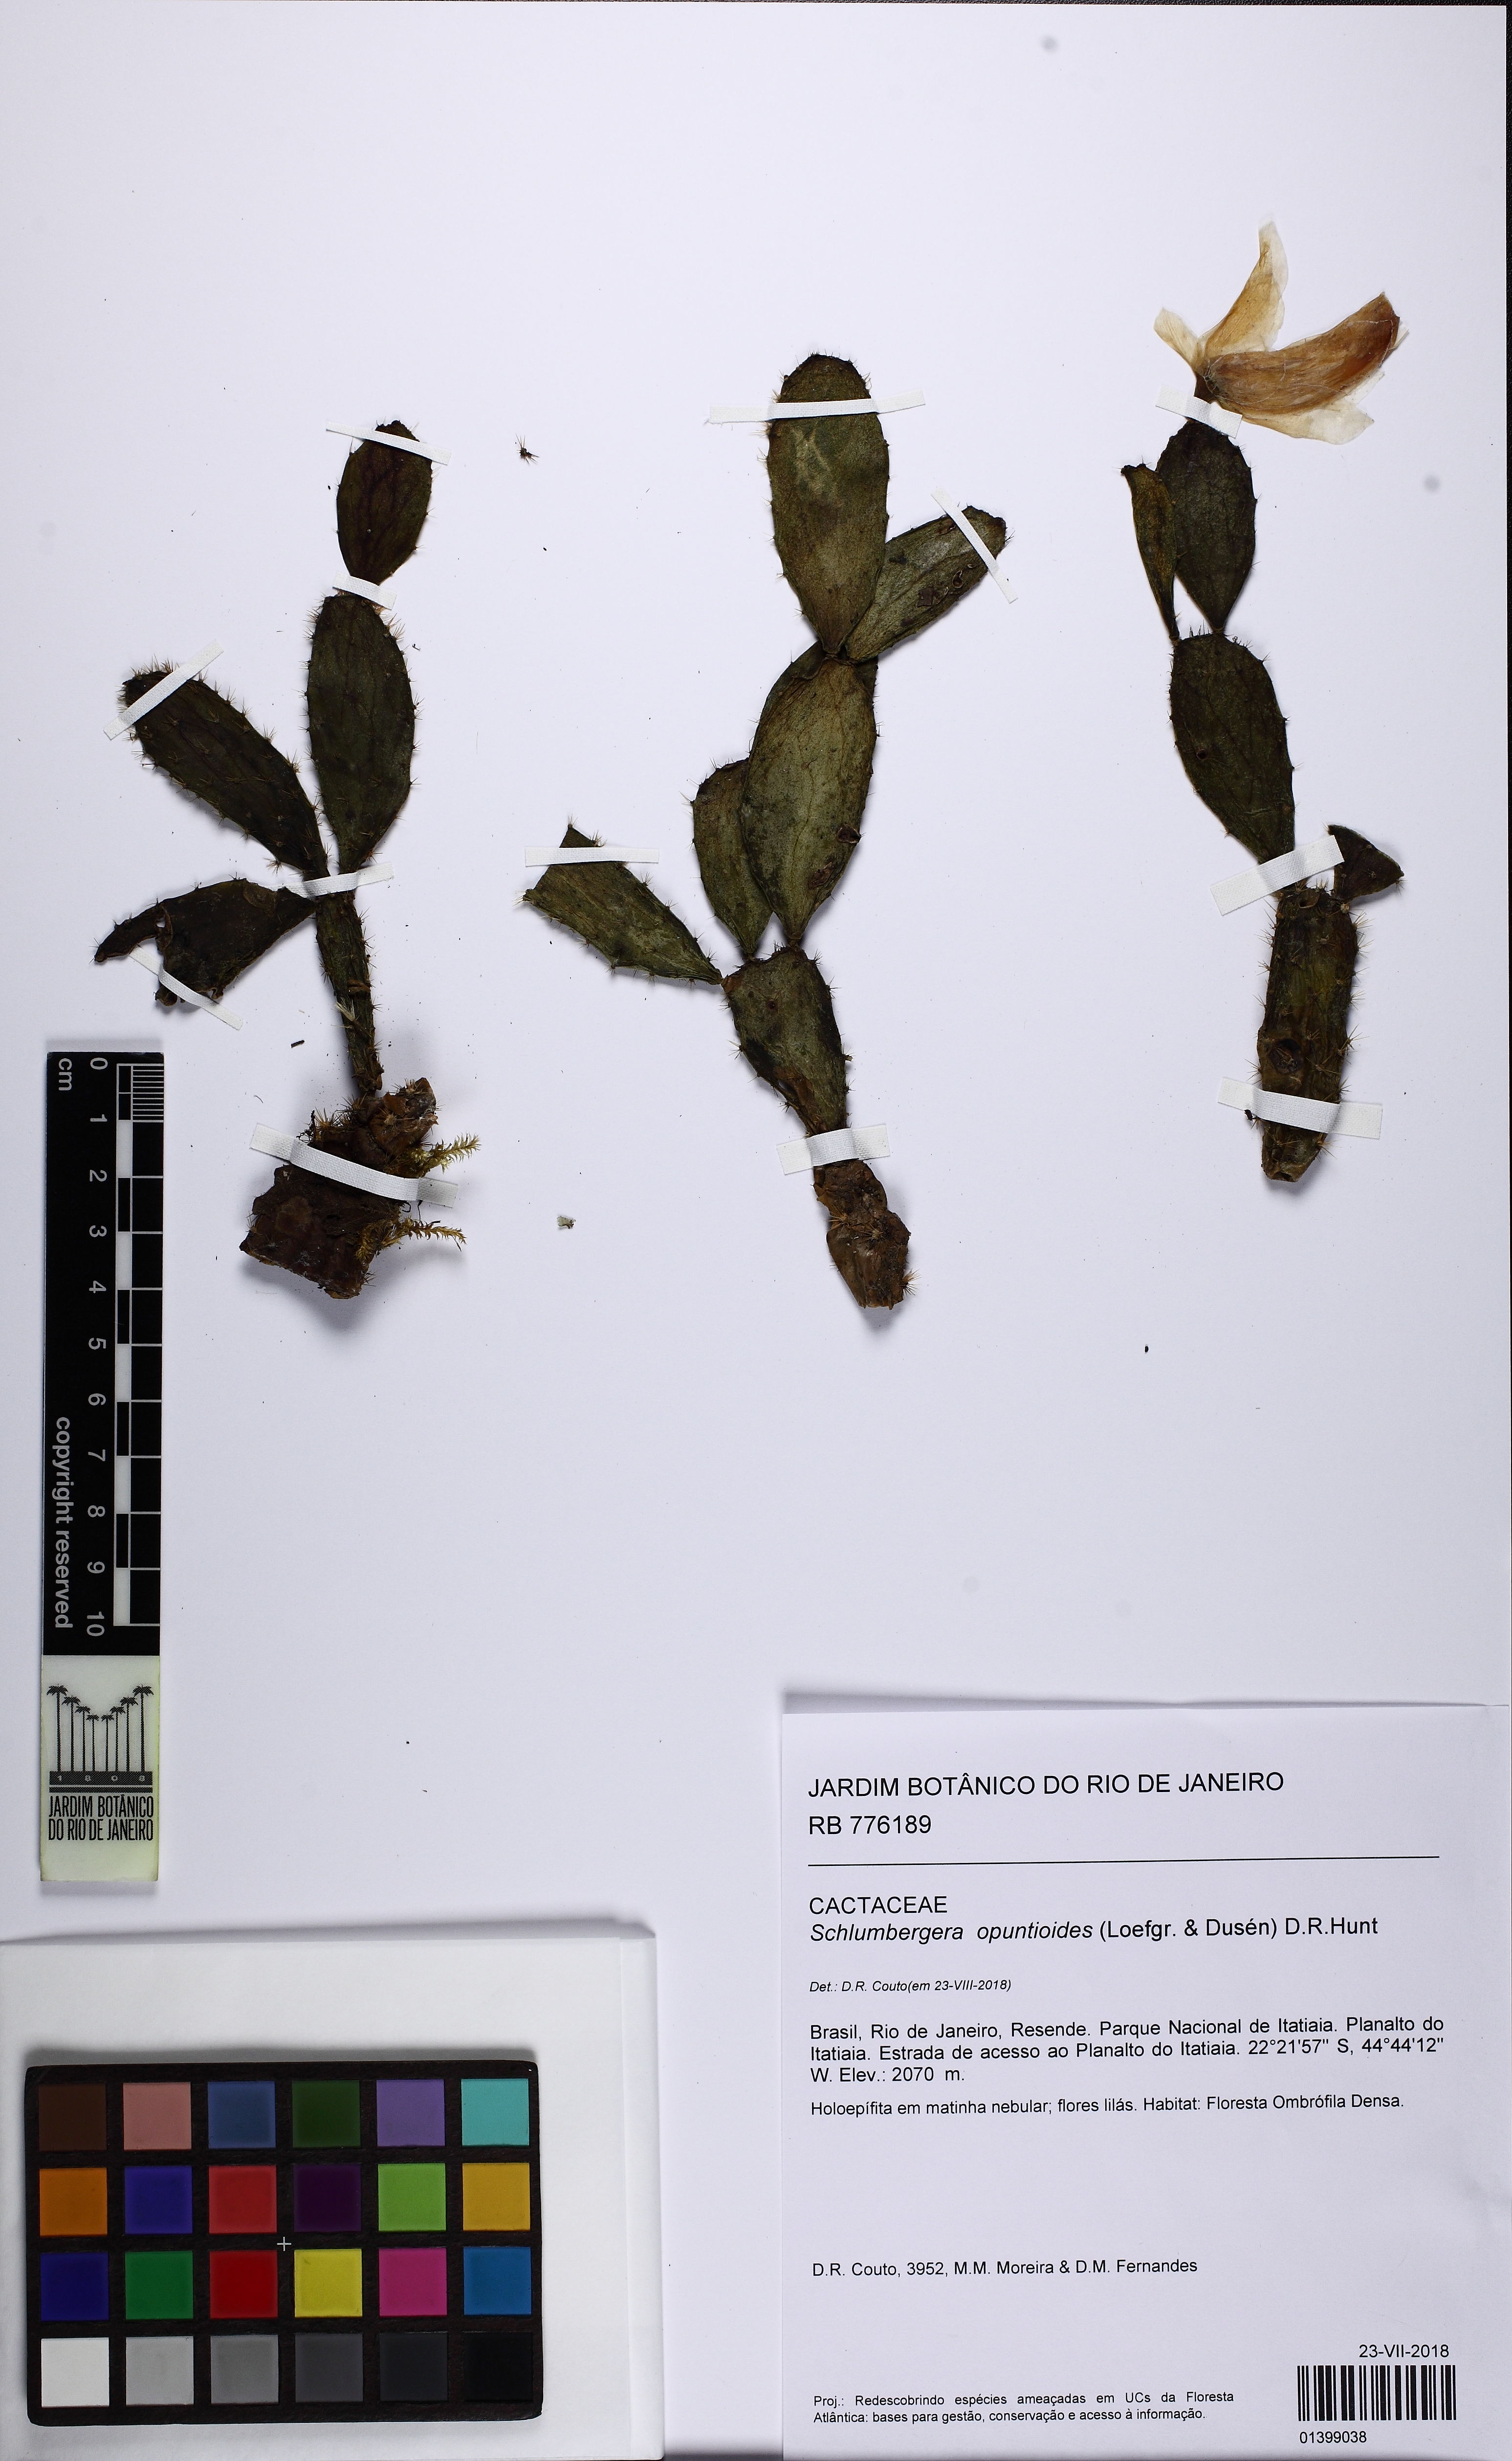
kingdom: Plantae
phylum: Tracheophyta
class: Magnoliopsida
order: Caryophyllales
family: Cactaceae
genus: Schlumbergera
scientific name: Schlumbergera opuntioides
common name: Christmas cactus
